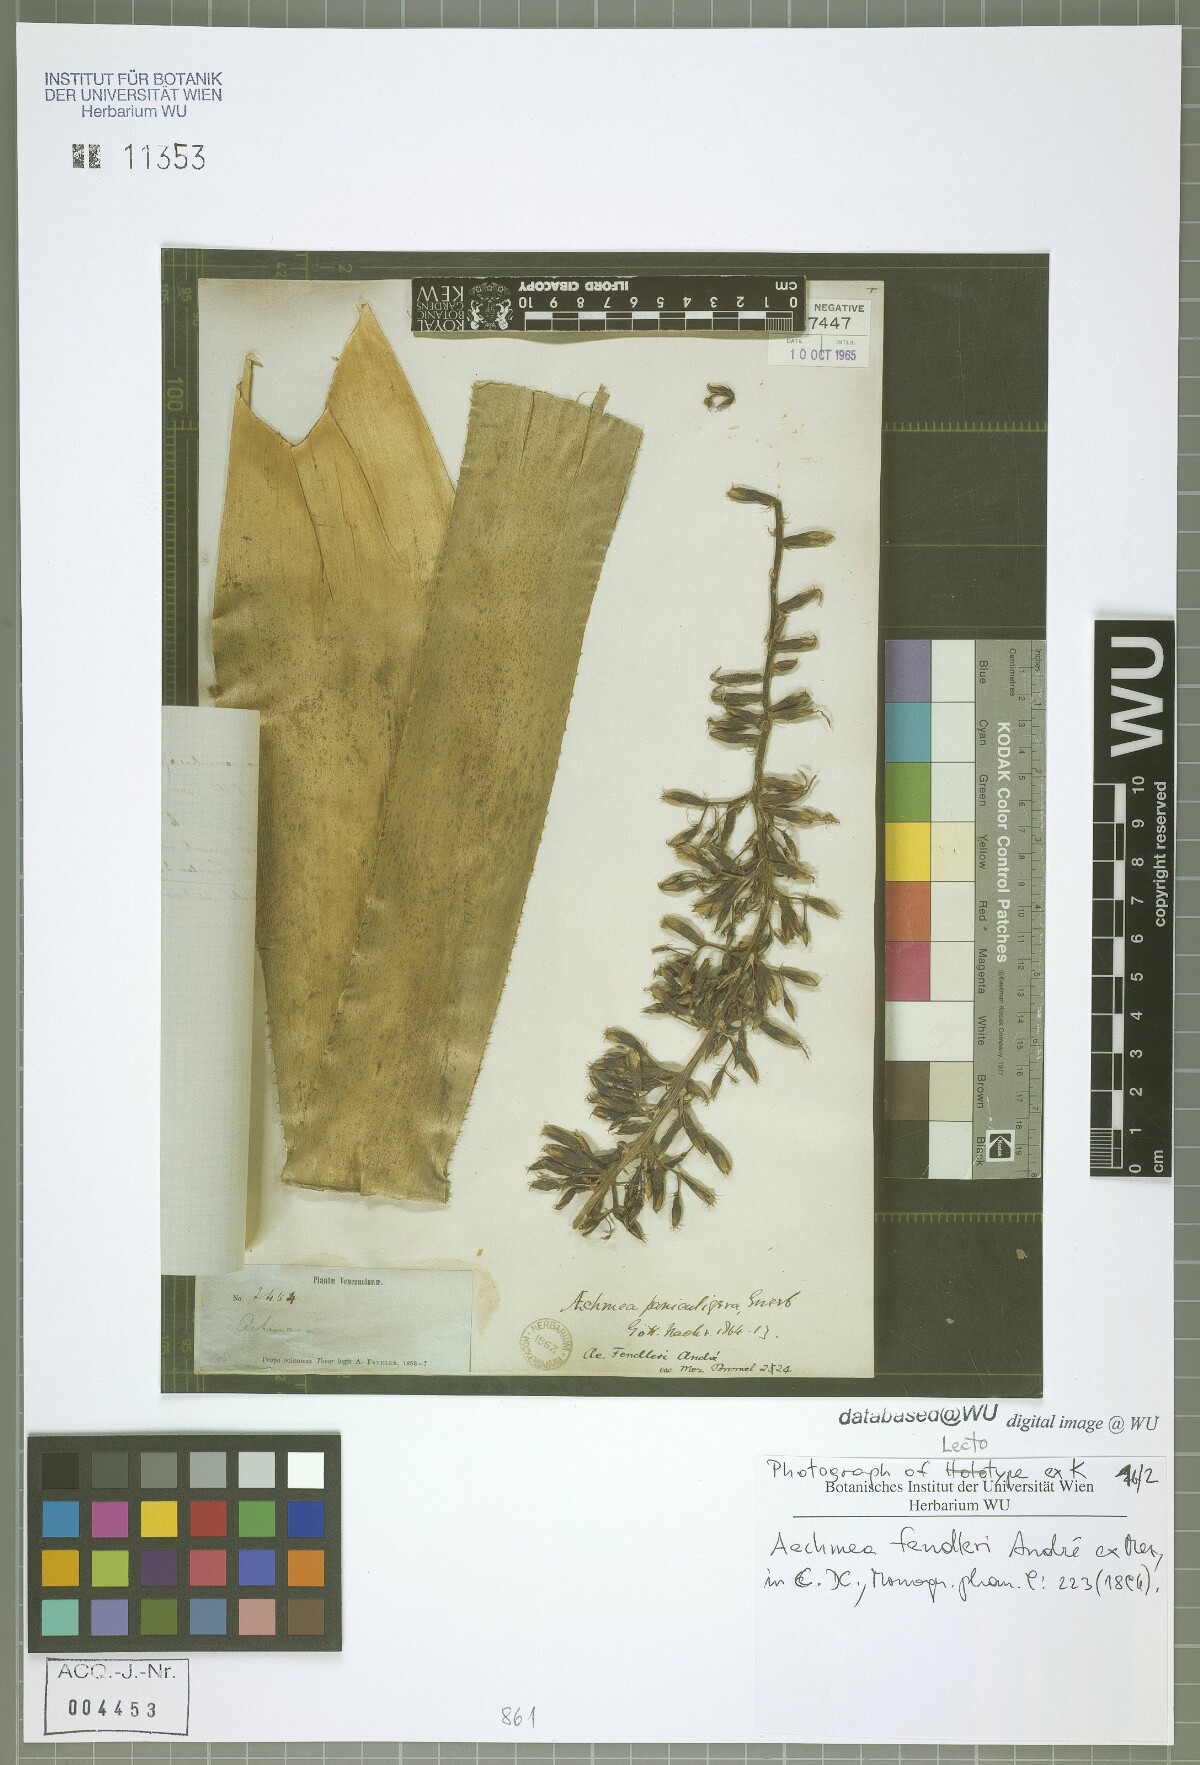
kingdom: Plantae
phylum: Tracheophyta
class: Liliopsida
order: Poales
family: Bromeliaceae
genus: Aechmea
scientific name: Aechmea fendleri
